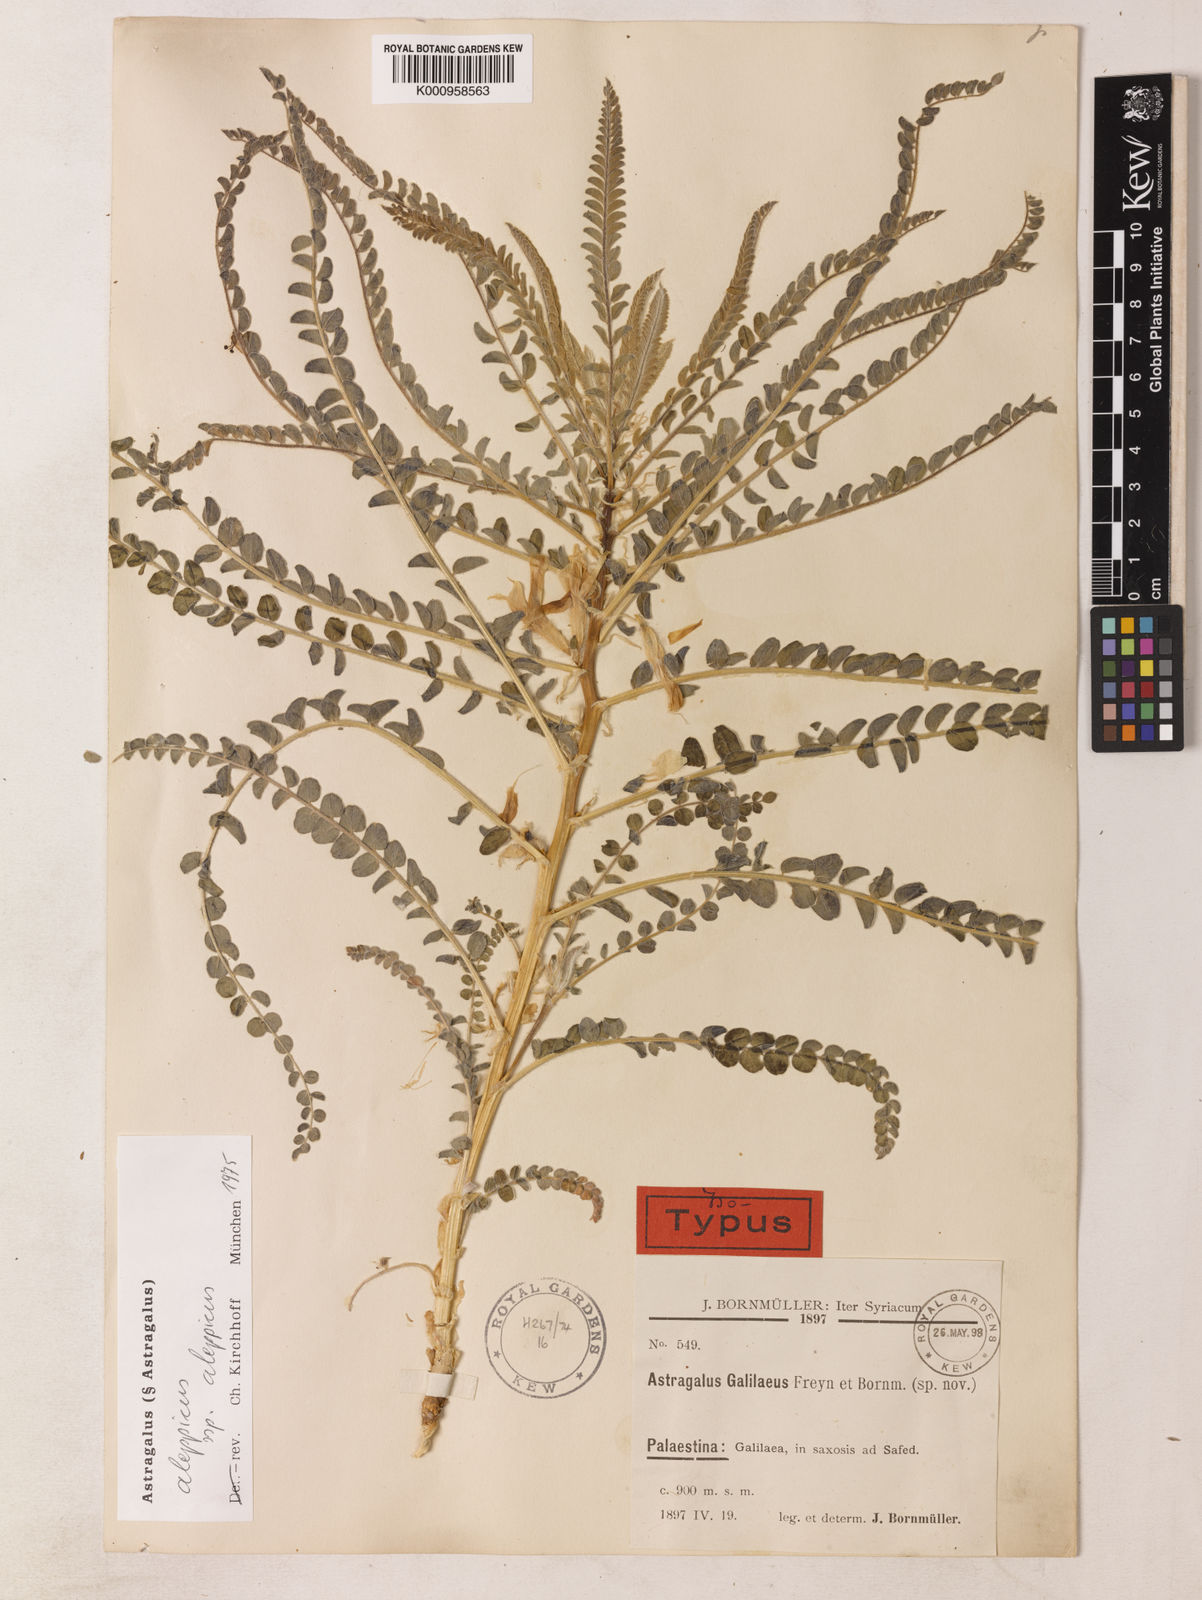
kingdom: Plantae
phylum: Tracheophyta
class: Magnoliopsida
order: Fabales
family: Fabaceae
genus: Astragalus
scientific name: Astragalus
